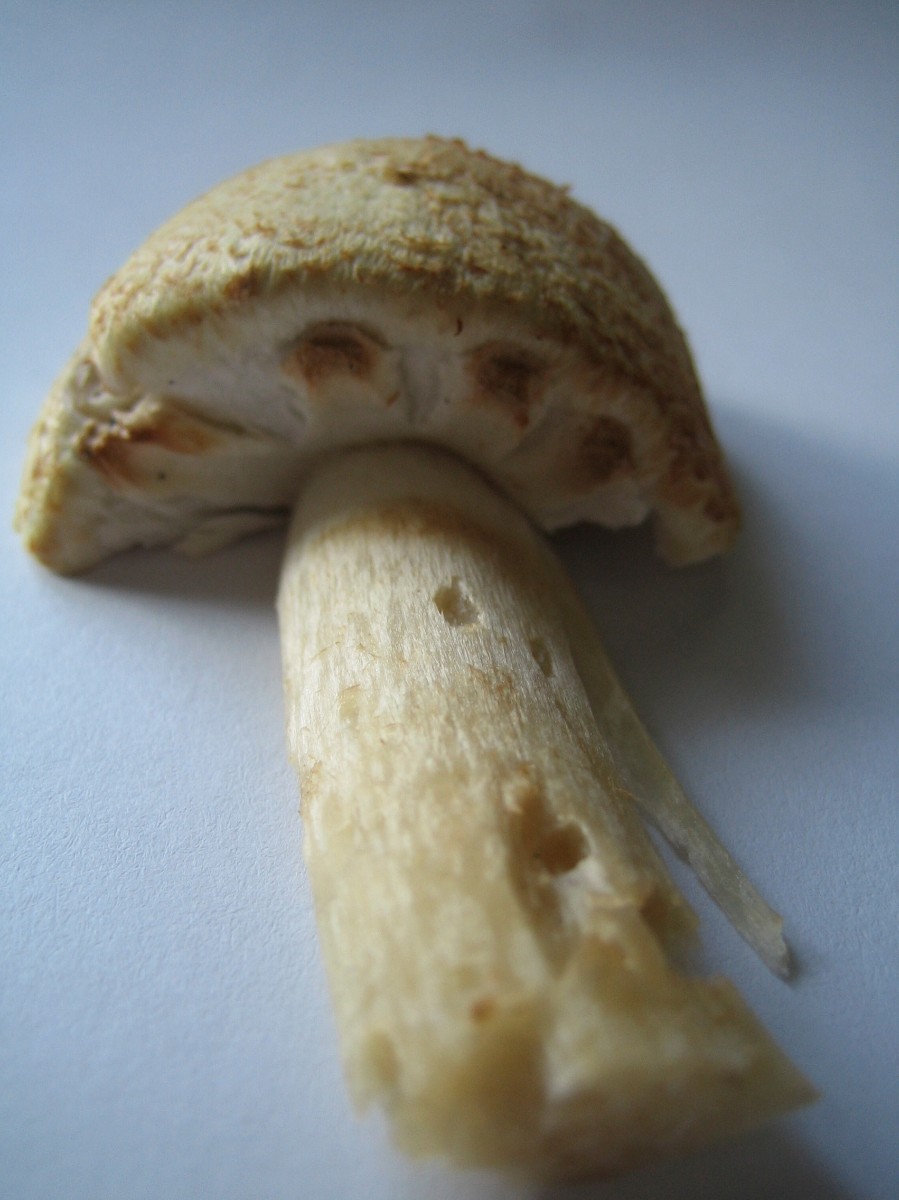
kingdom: Fungi
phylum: Basidiomycota
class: Agaricomycetes
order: Agaricales
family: Agaricaceae
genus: Agaricus
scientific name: Agaricus augustus
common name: prægtig champignon
